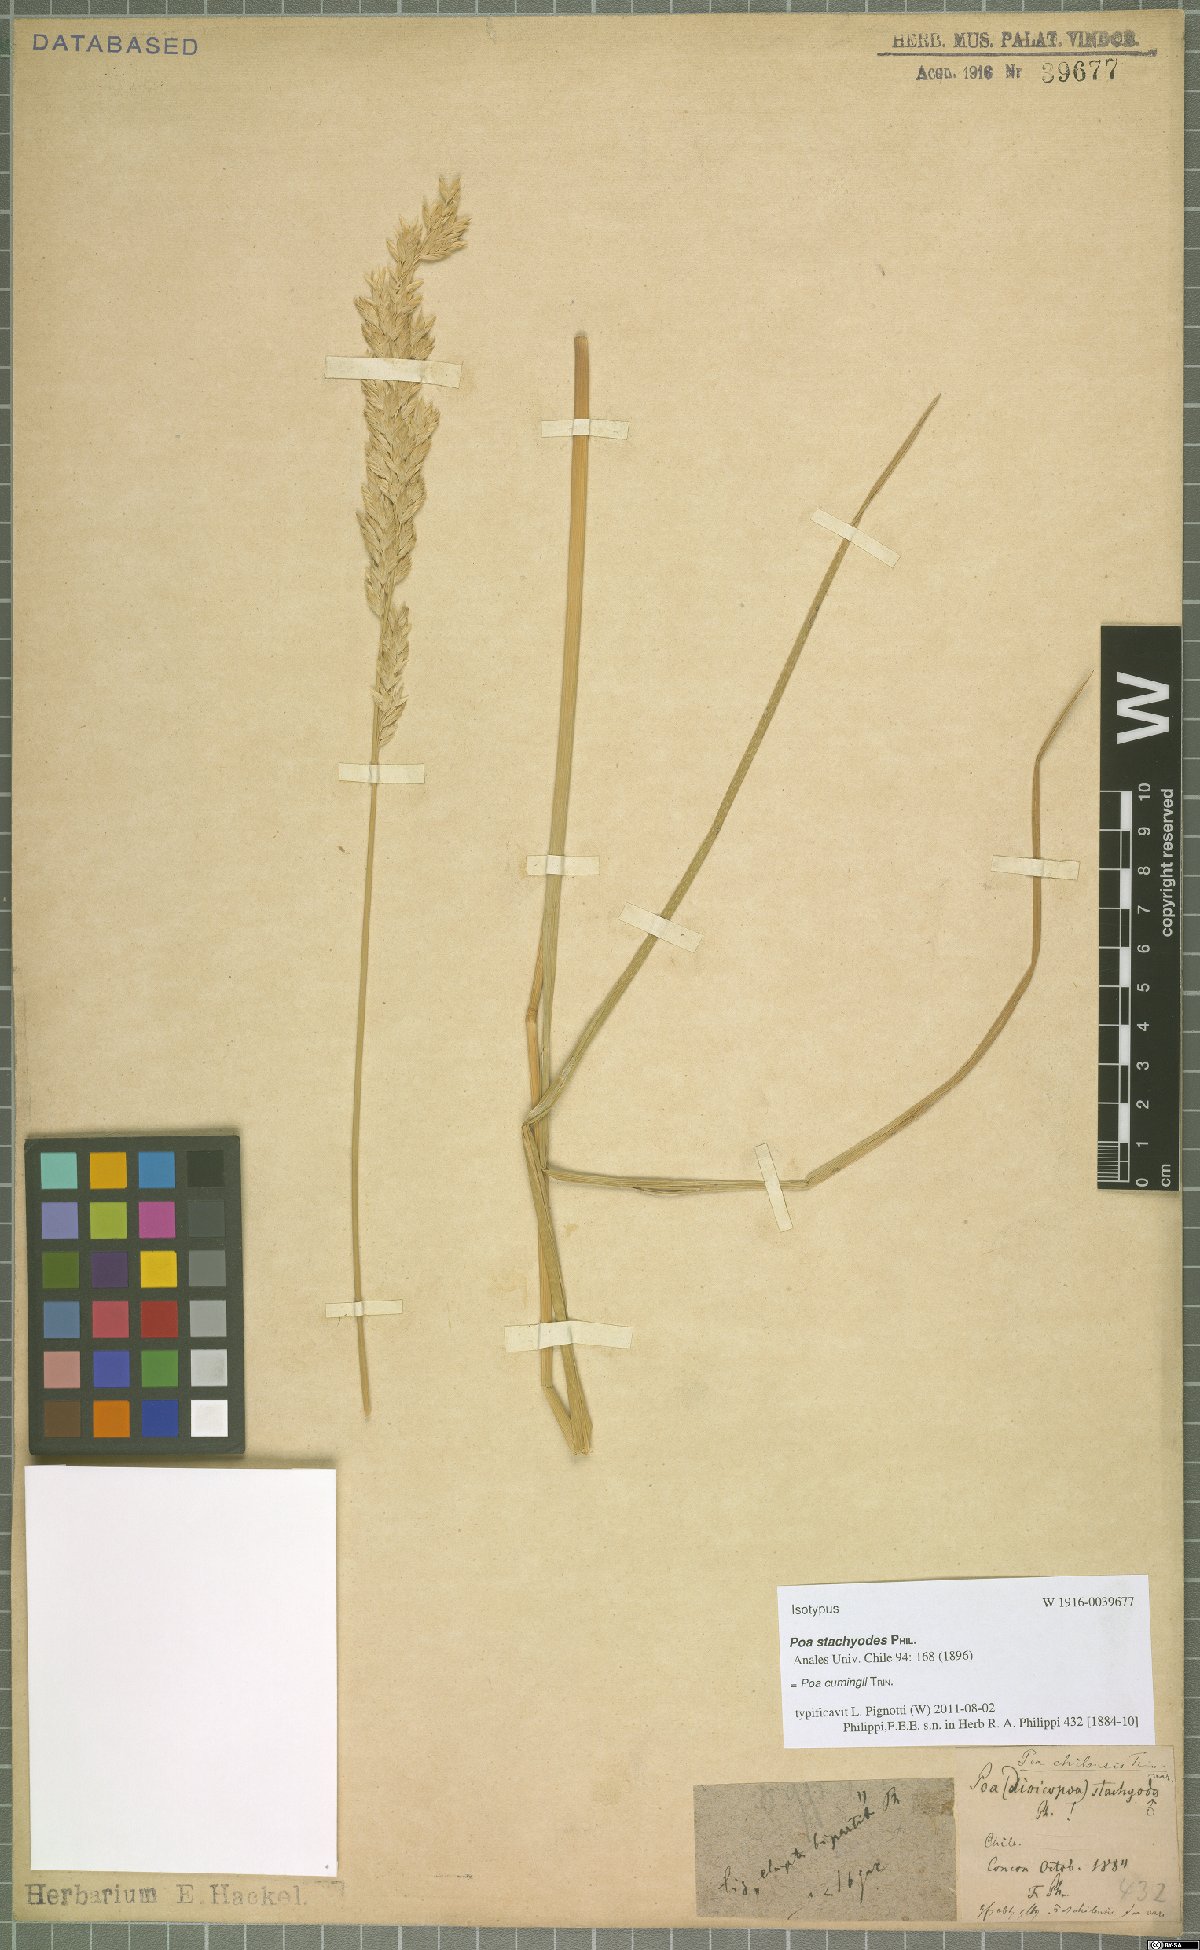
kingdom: Plantae
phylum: Tracheophyta
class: Liliopsida
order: Poales
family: Poaceae
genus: Poa
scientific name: Poa cumingii
